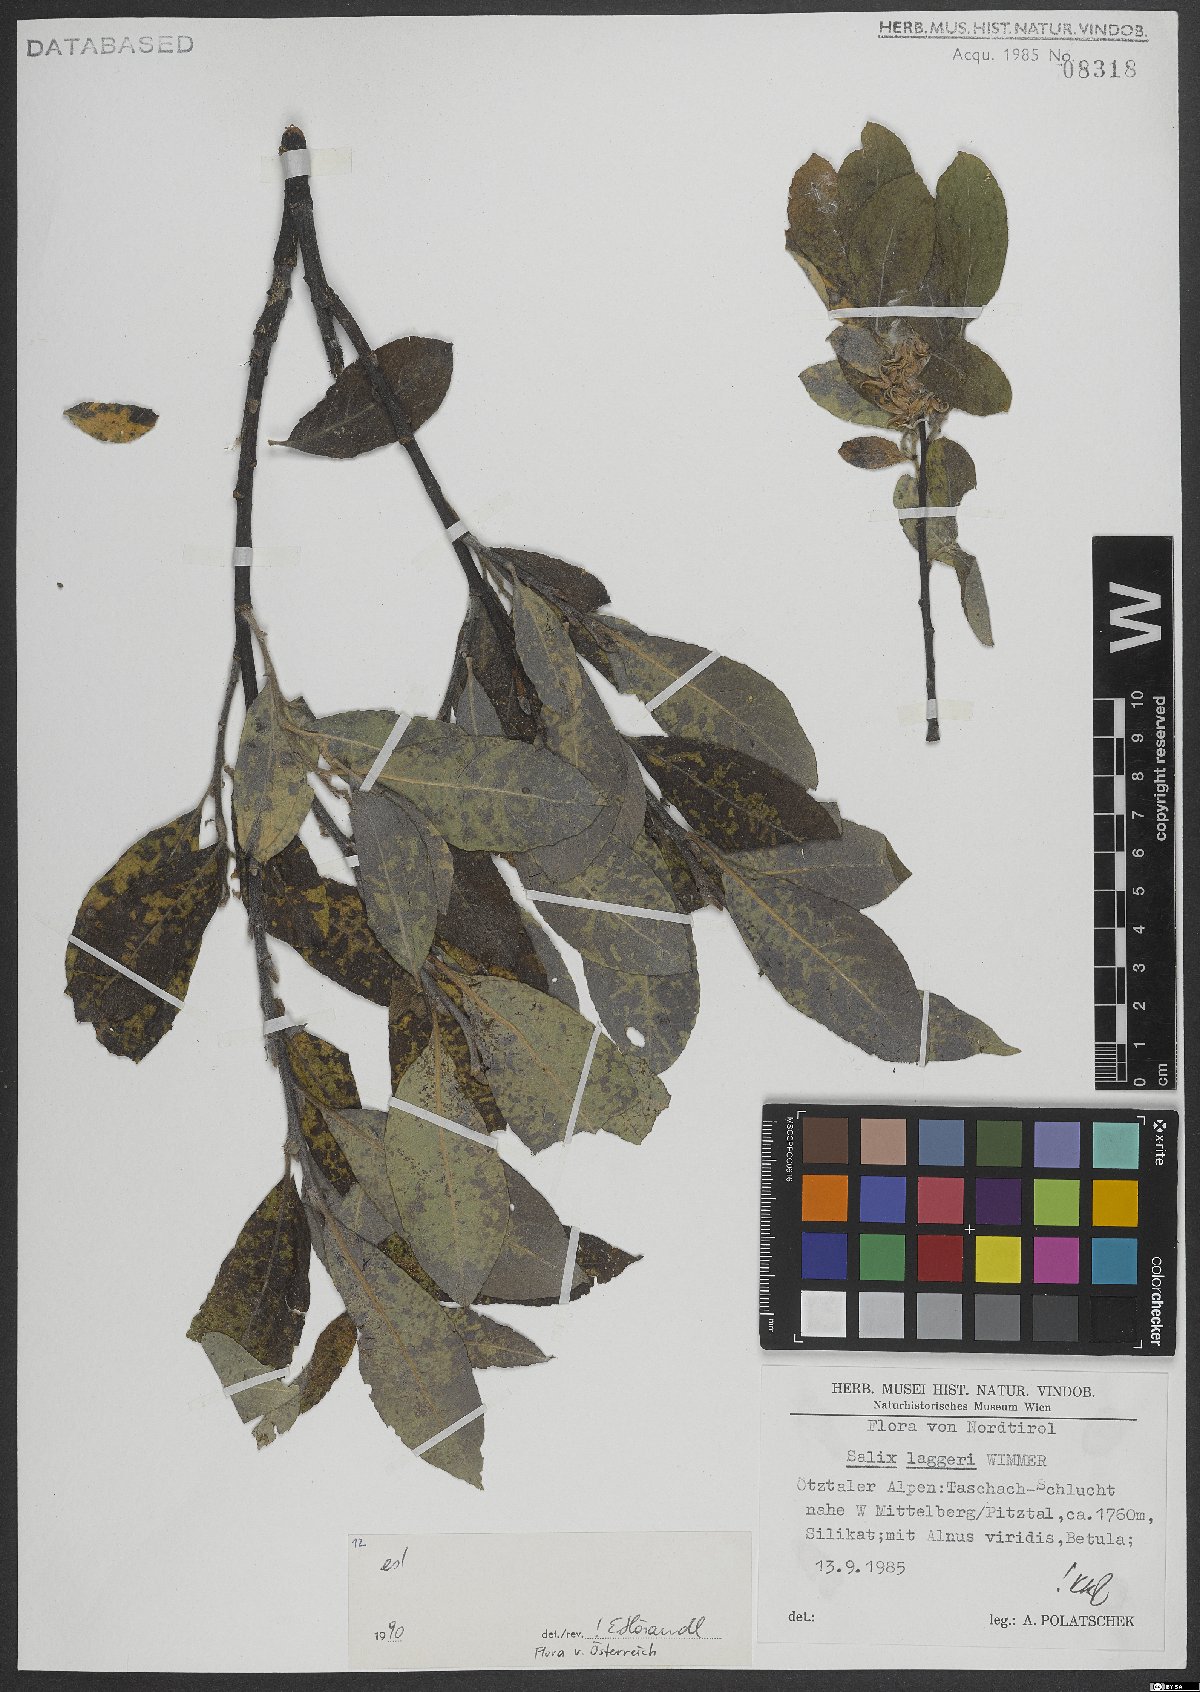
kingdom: Plantae
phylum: Tracheophyta
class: Magnoliopsida
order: Malpighiales
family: Salicaceae
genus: Salix
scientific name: Salix laggeri
